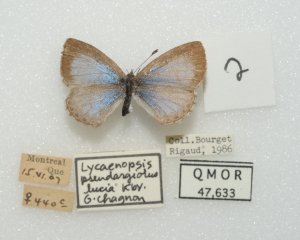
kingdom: Animalia
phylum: Arthropoda
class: Insecta
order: Lepidoptera
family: Lycaenidae
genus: Celastrina
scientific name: Celastrina lucia
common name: Northern Spring Azure
